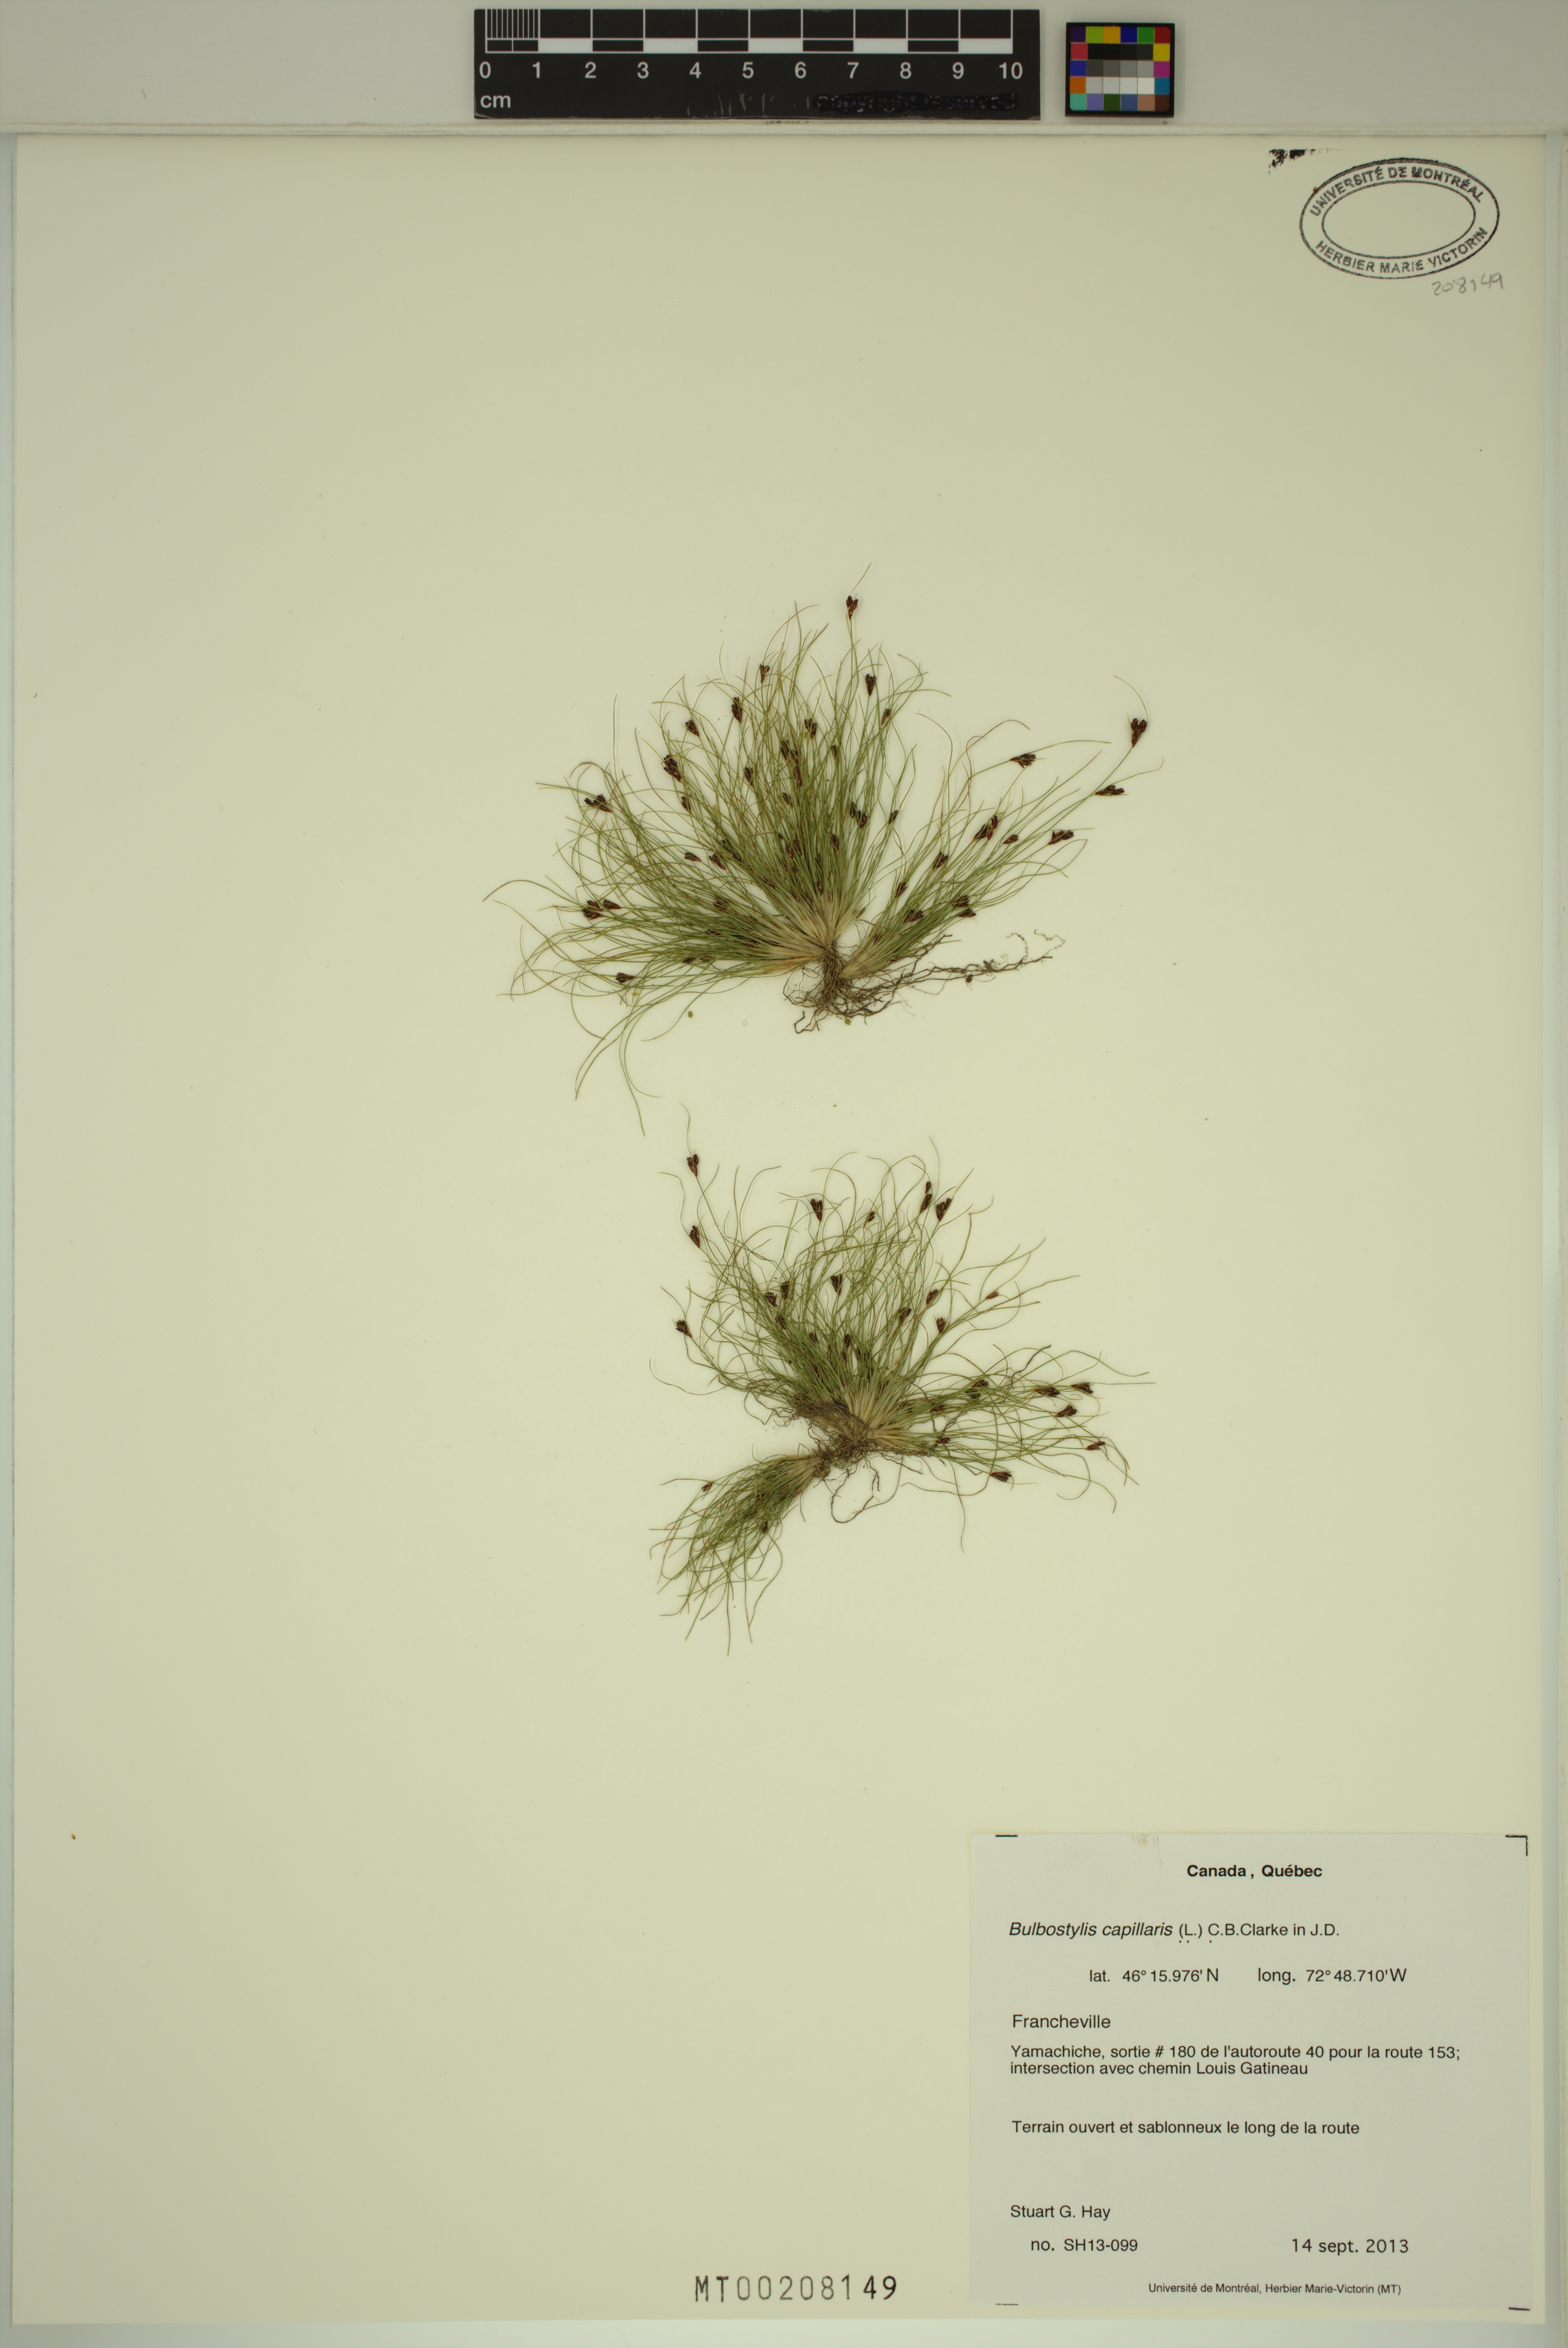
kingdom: Plantae
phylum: Tracheophyta
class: Liliopsida
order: Poales
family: Cyperaceae
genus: Bulbostylis
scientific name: Bulbostylis capillaris
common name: Densetuft hairsedge
